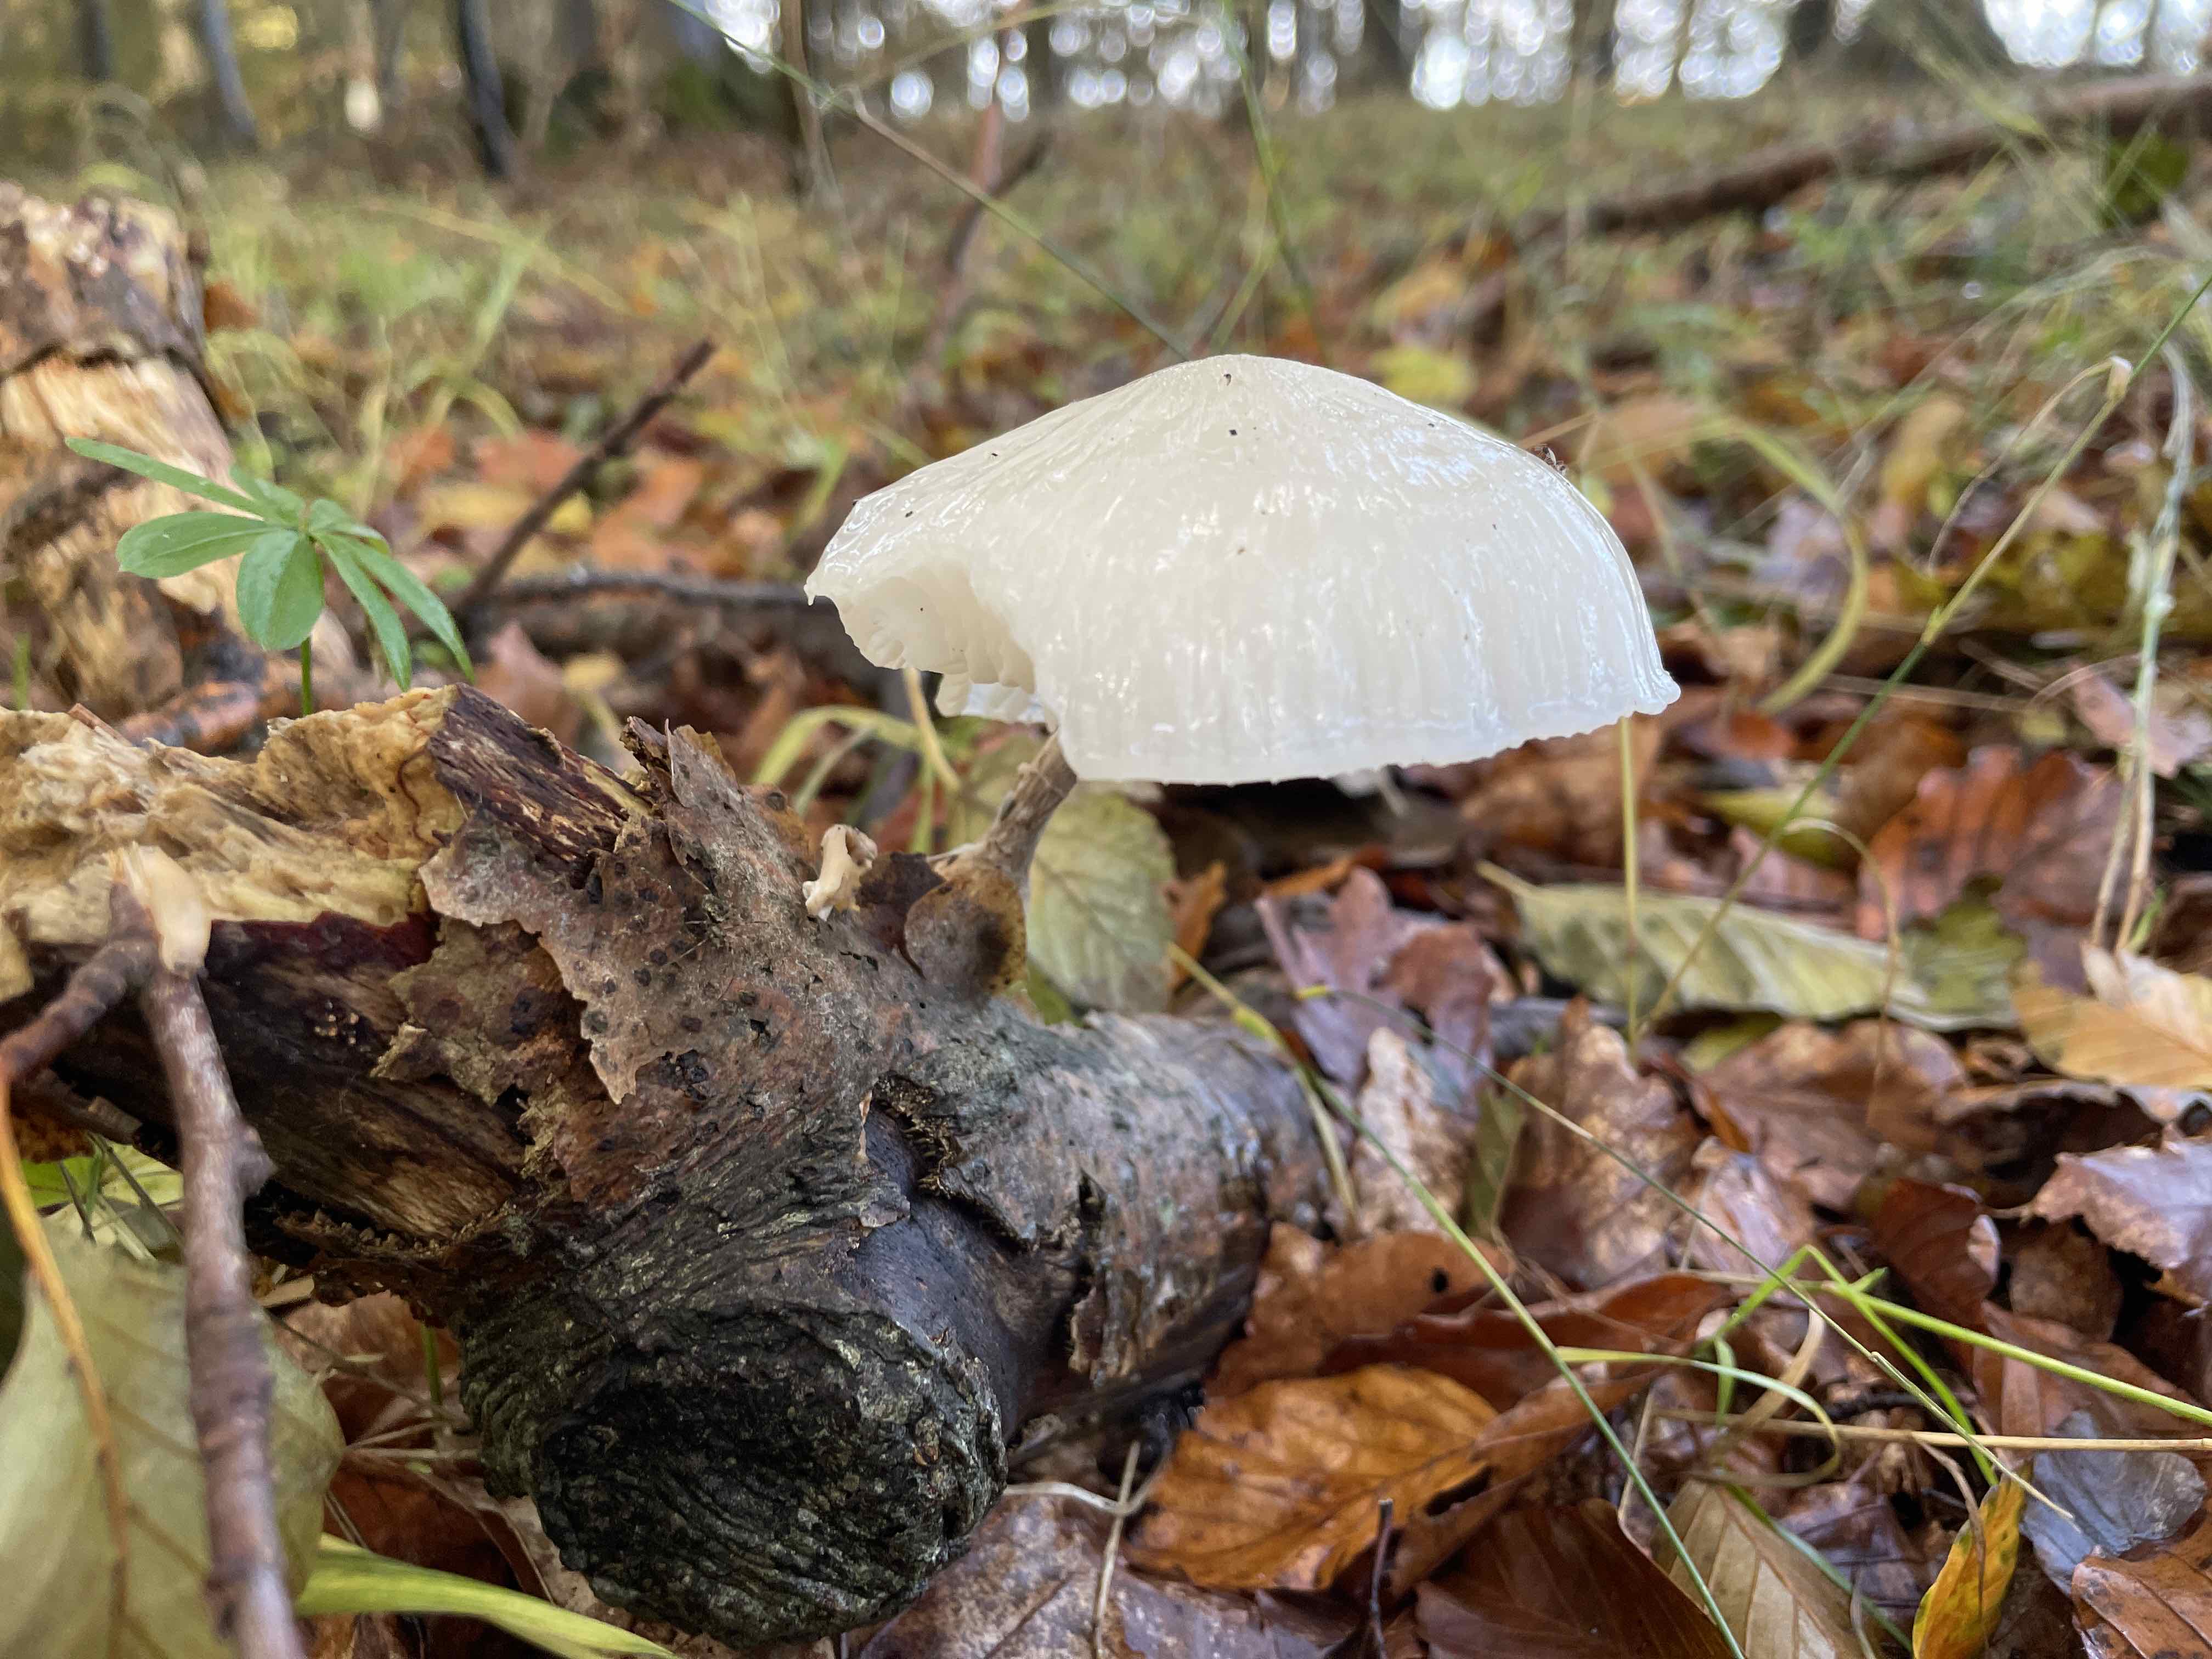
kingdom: Fungi
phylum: Basidiomycota
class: Agaricomycetes
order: Agaricales
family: Physalacriaceae
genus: Mucidula
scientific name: Mucidula mucida
